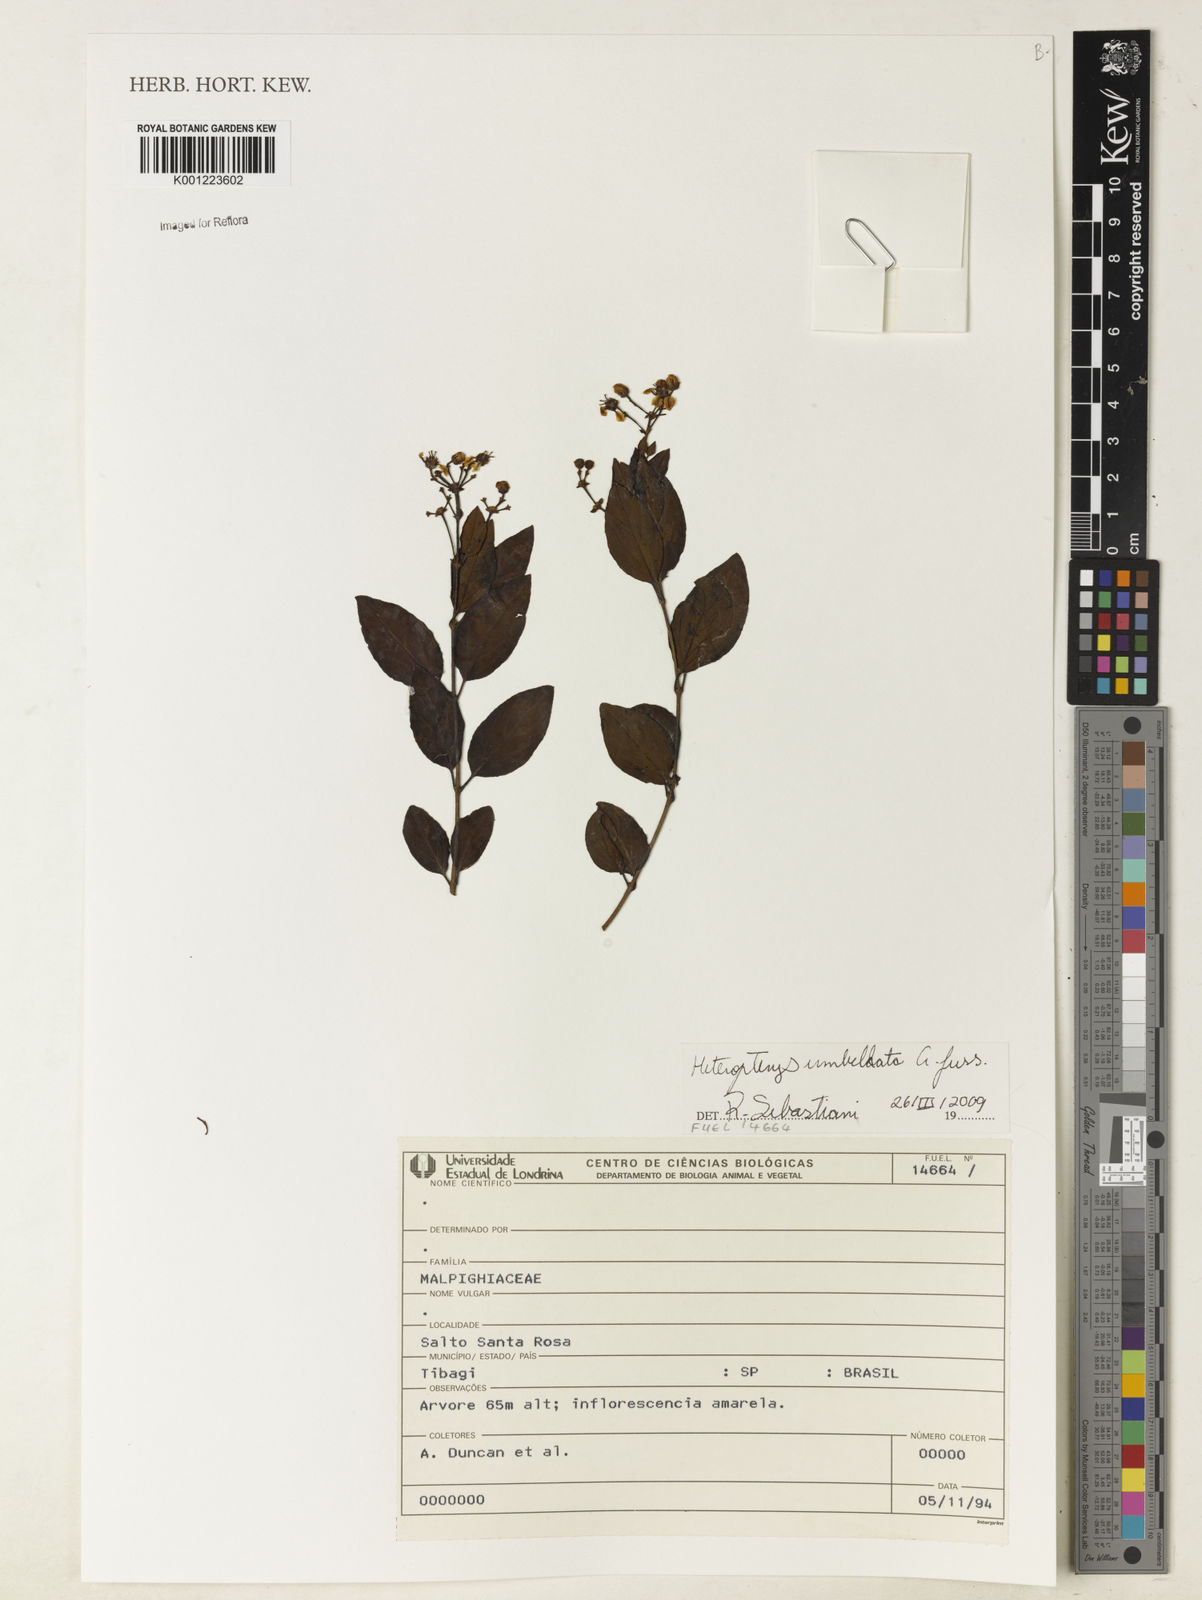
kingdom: Plantae
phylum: Tracheophyta
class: Magnoliopsida
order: Malpighiales
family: Malpighiaceae
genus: Heteropterys
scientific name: Heteropterys umbellata
